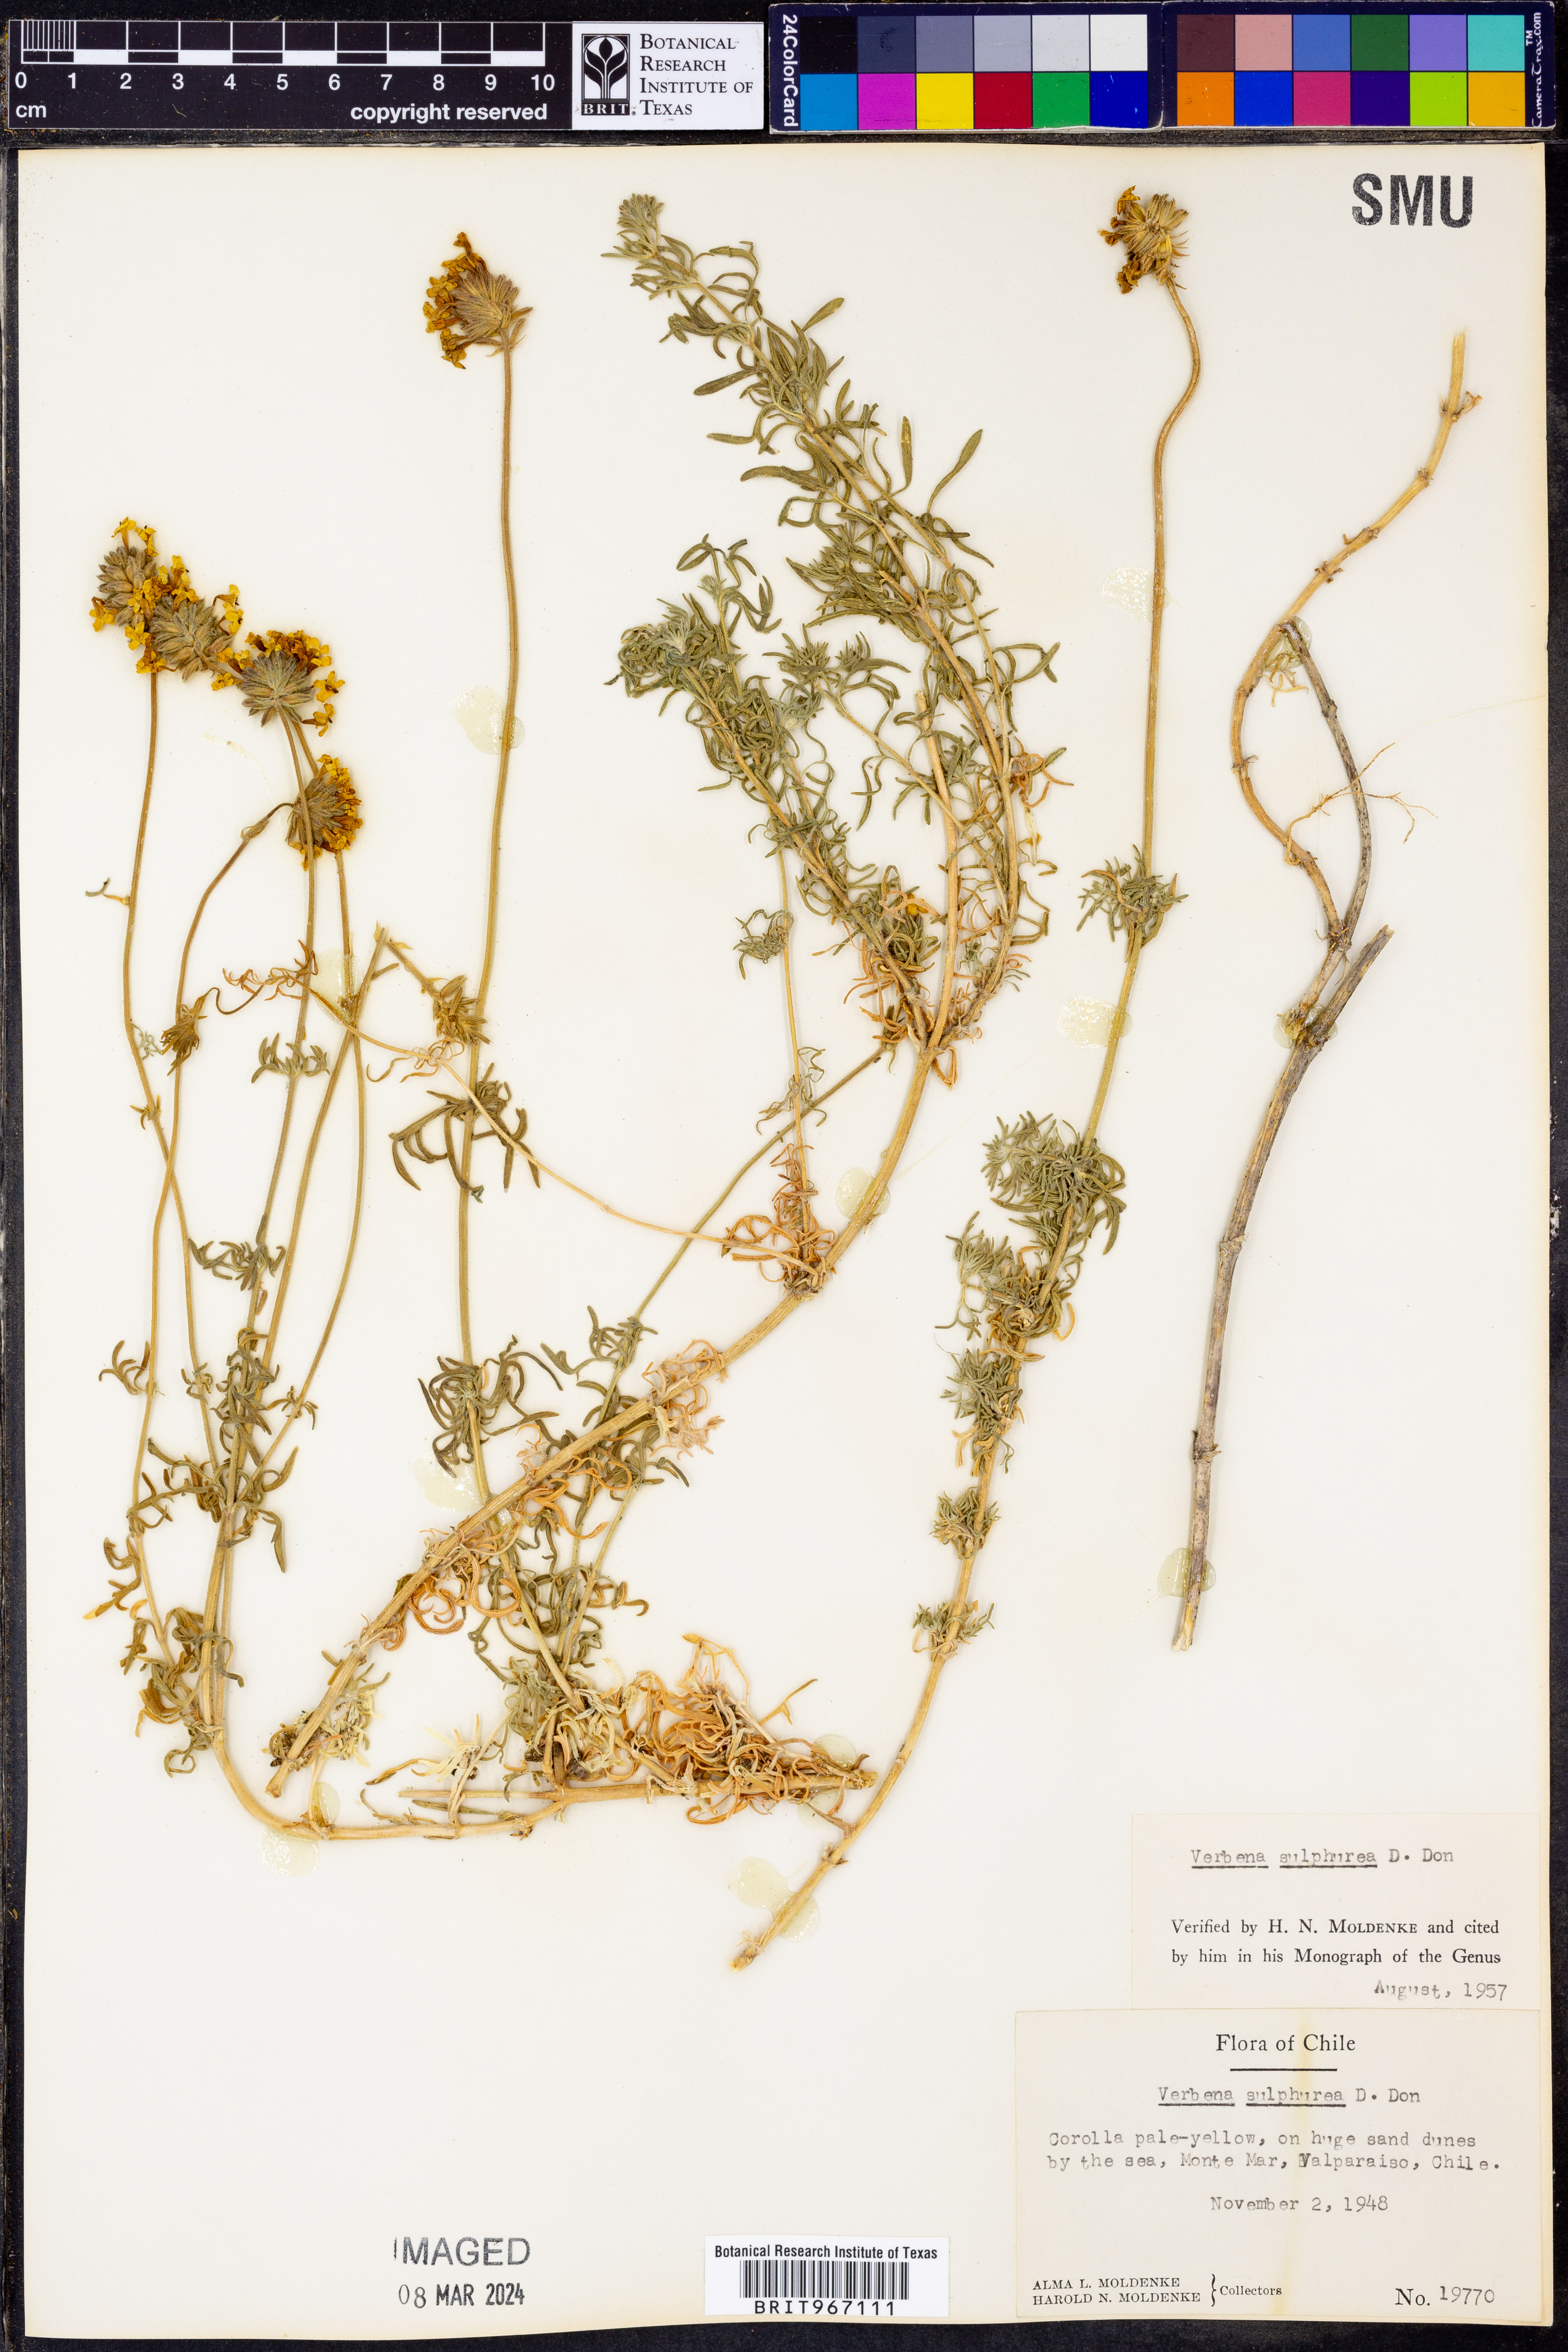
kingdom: Plantae
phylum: Tracheophyta
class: Magnoliopsida
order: Lamiales
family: Verbenaceae
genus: Verbena
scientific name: Verbena
